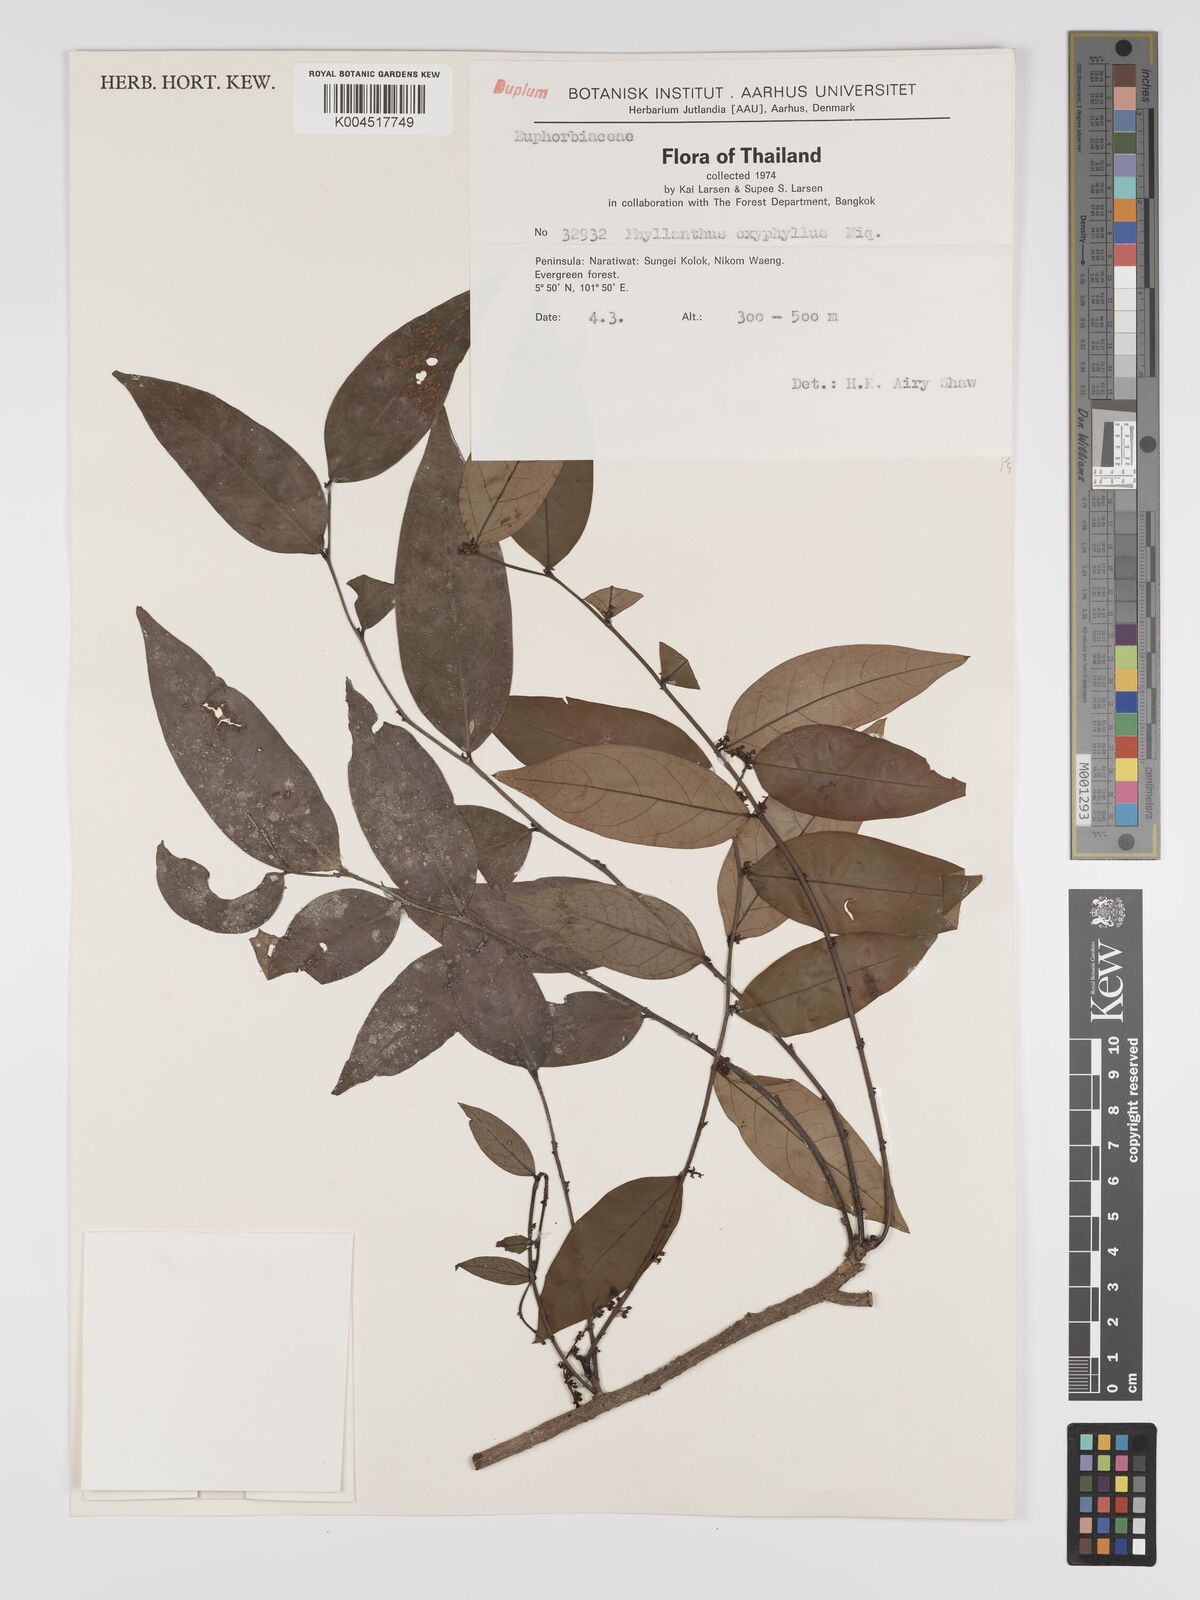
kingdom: Plantae
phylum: Tracheophyta
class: Magnoliopsida
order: Malpighiales
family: Phyllanthaceae
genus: Phyllanthus
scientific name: Phyllanthus
